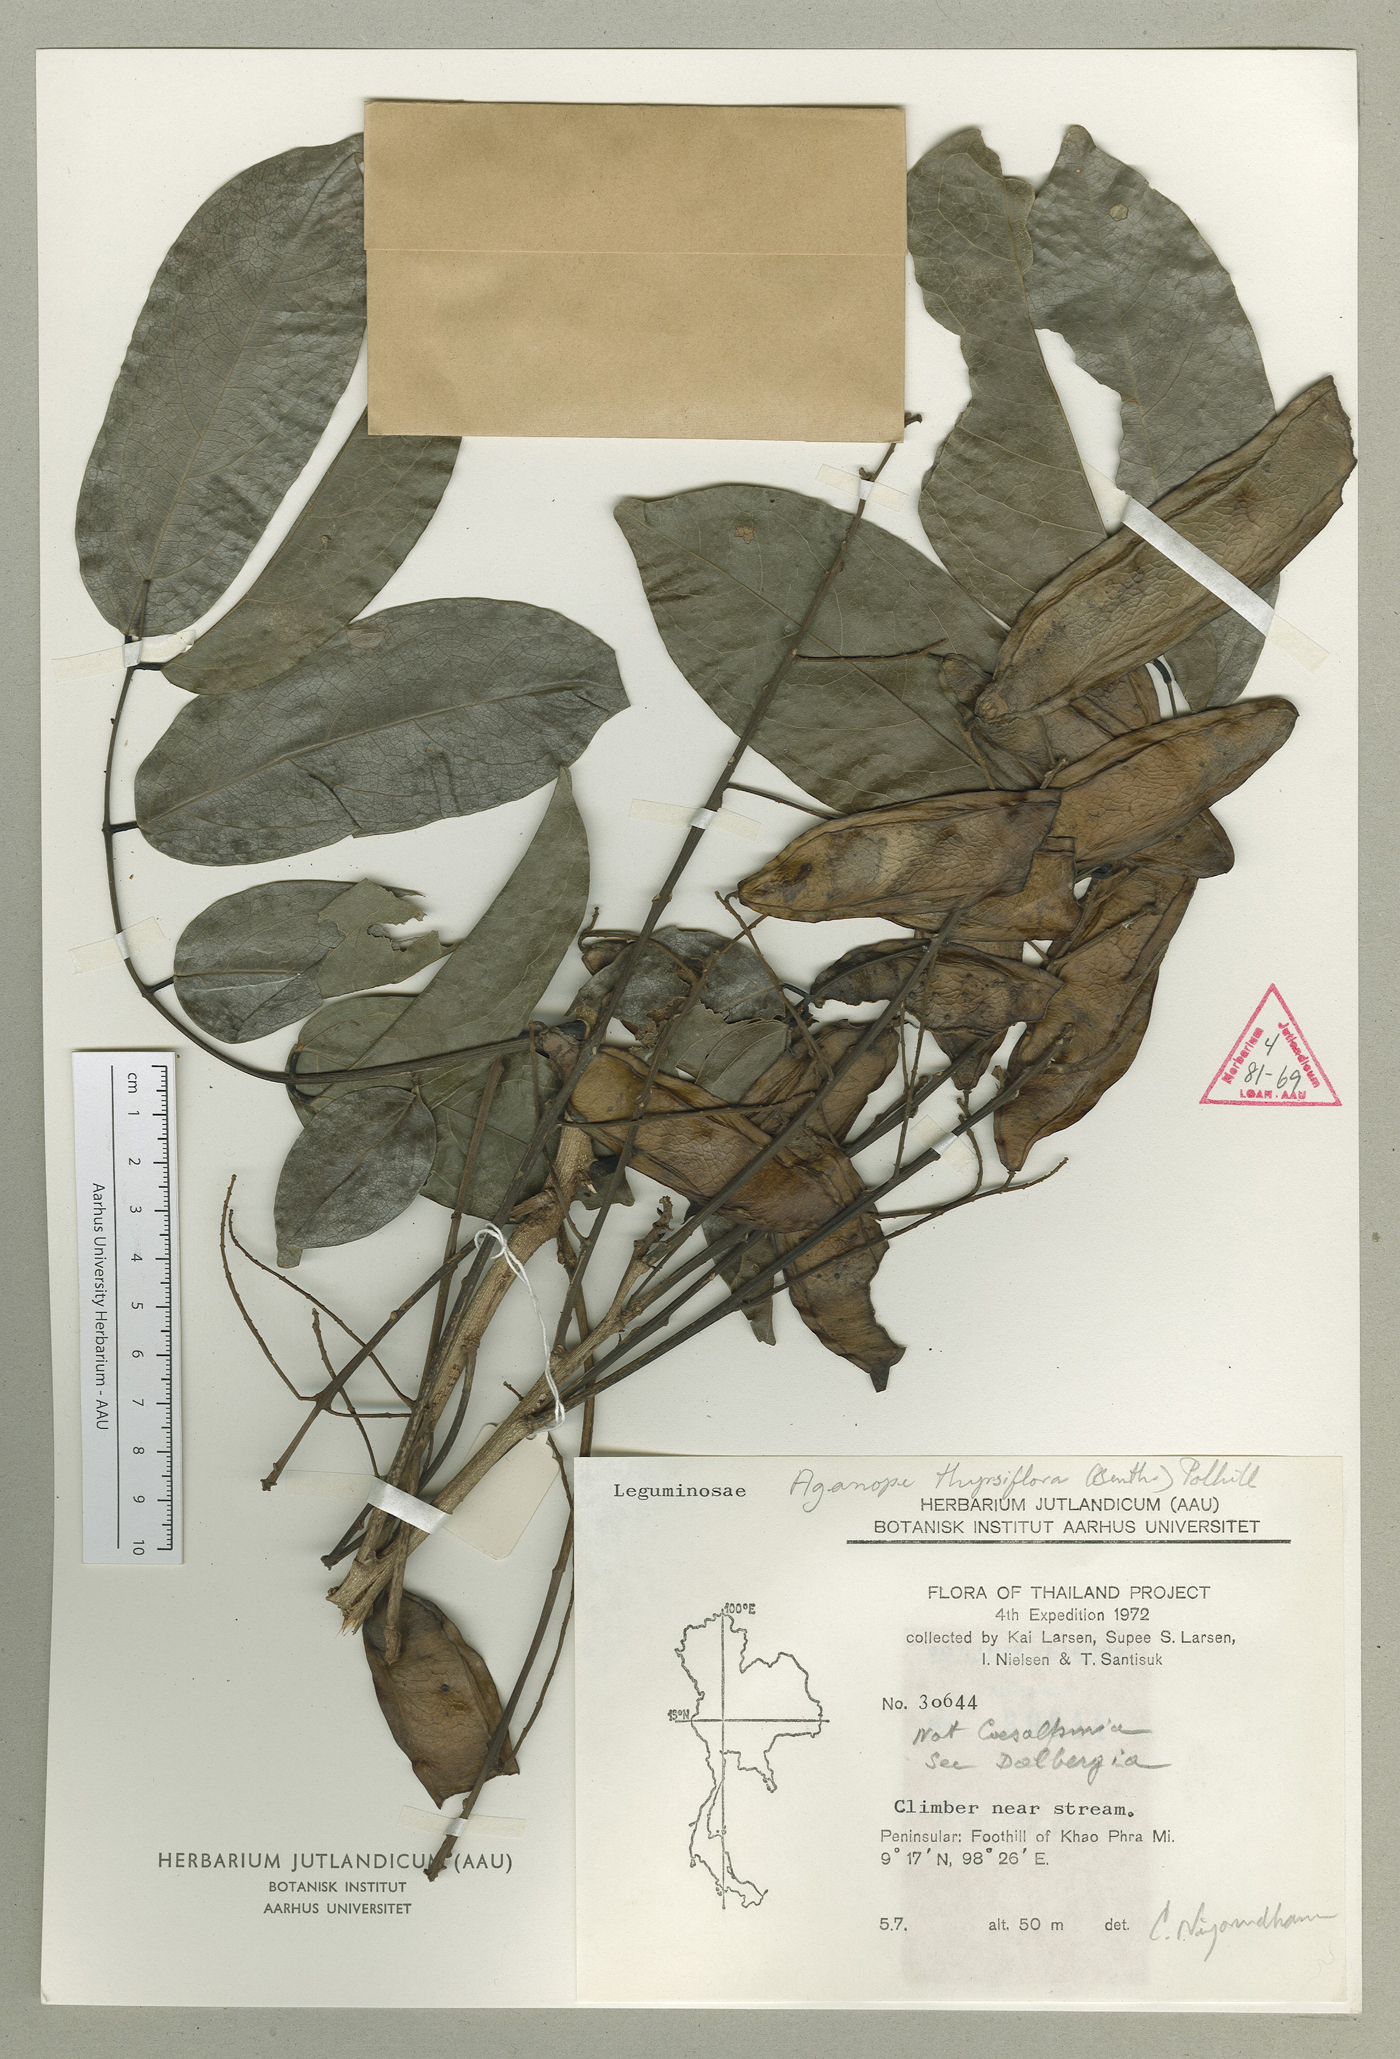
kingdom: Plantae
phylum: Tracheophyta
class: Magnoliopsida
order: Fabales
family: Fabaceae
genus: Aganope
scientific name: Aganope thyrsiflora
